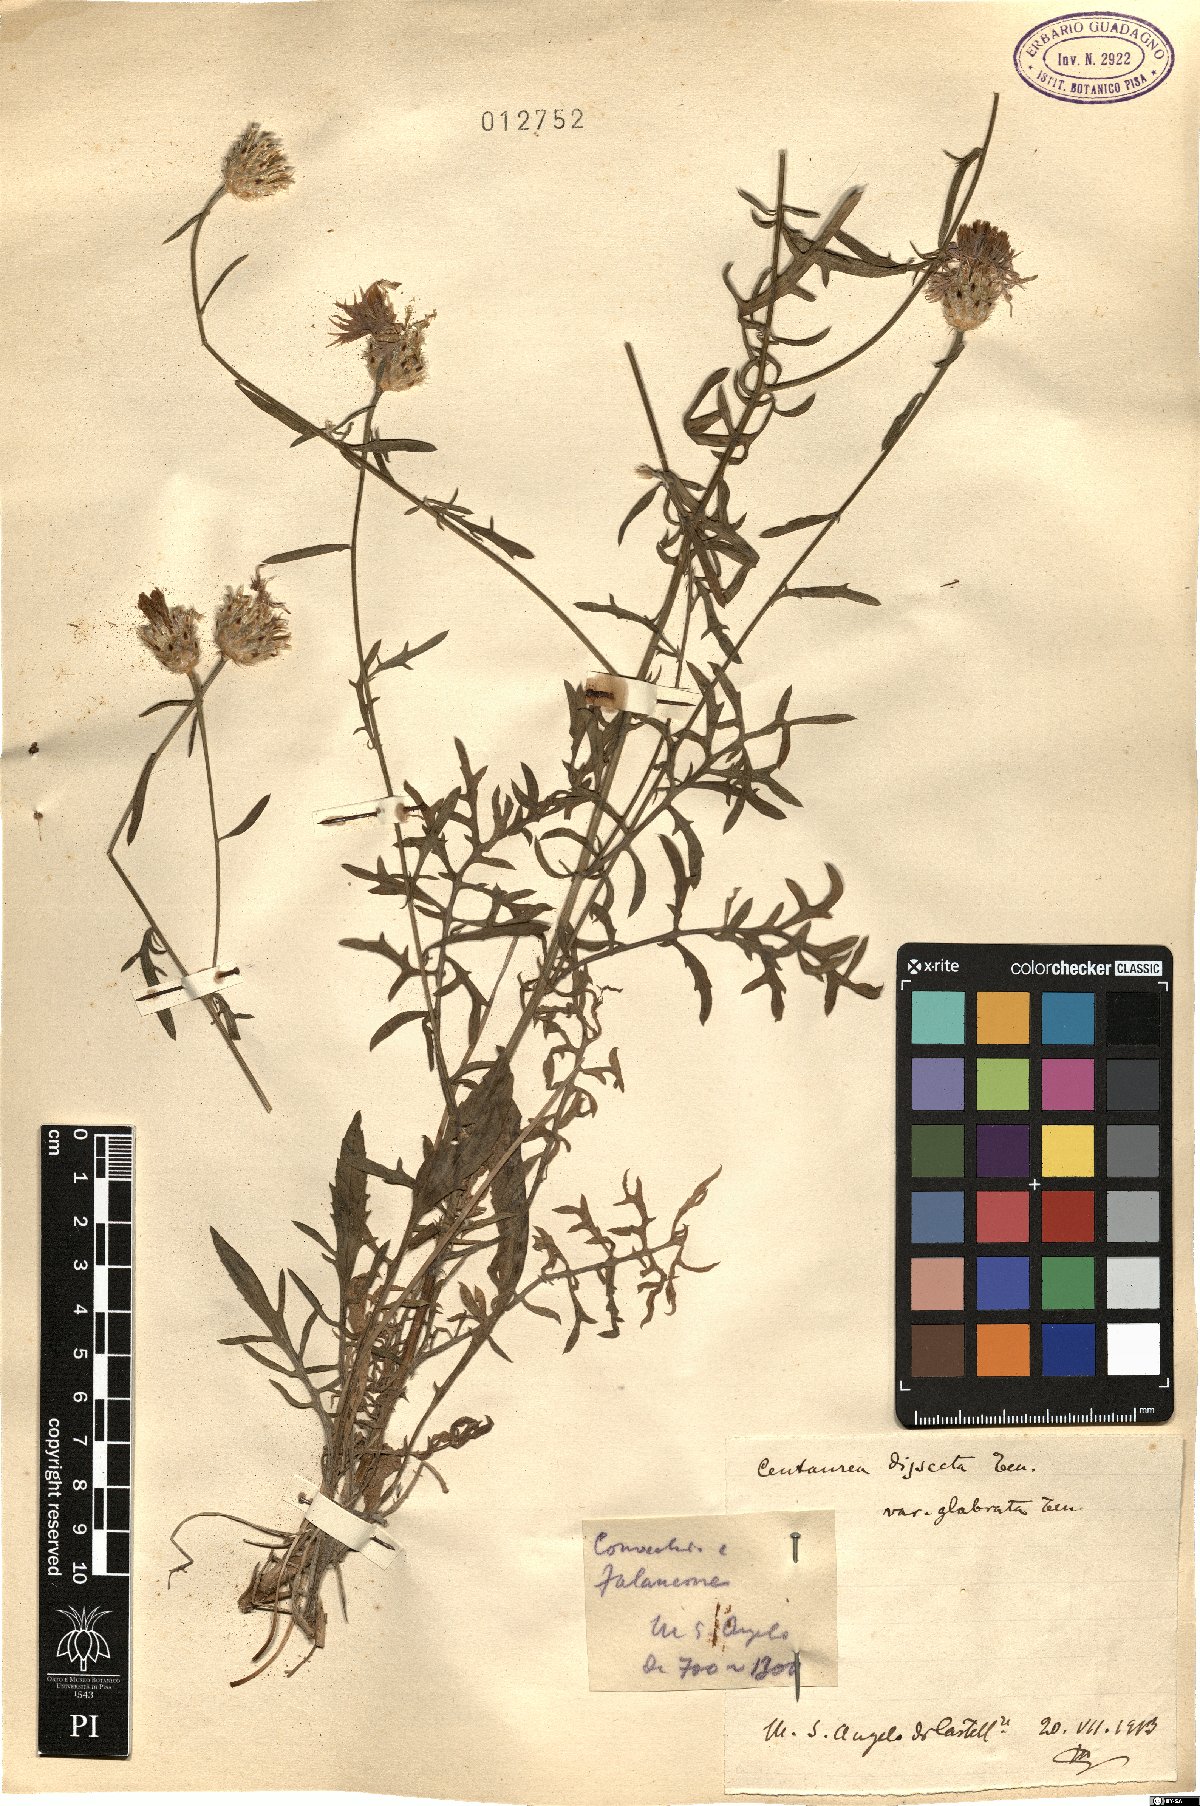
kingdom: Plantae
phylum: Tracheophyta
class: Magnoliopsida
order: Asterales
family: Asteraceae
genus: Centaurea
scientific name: Centaurea tenorei
